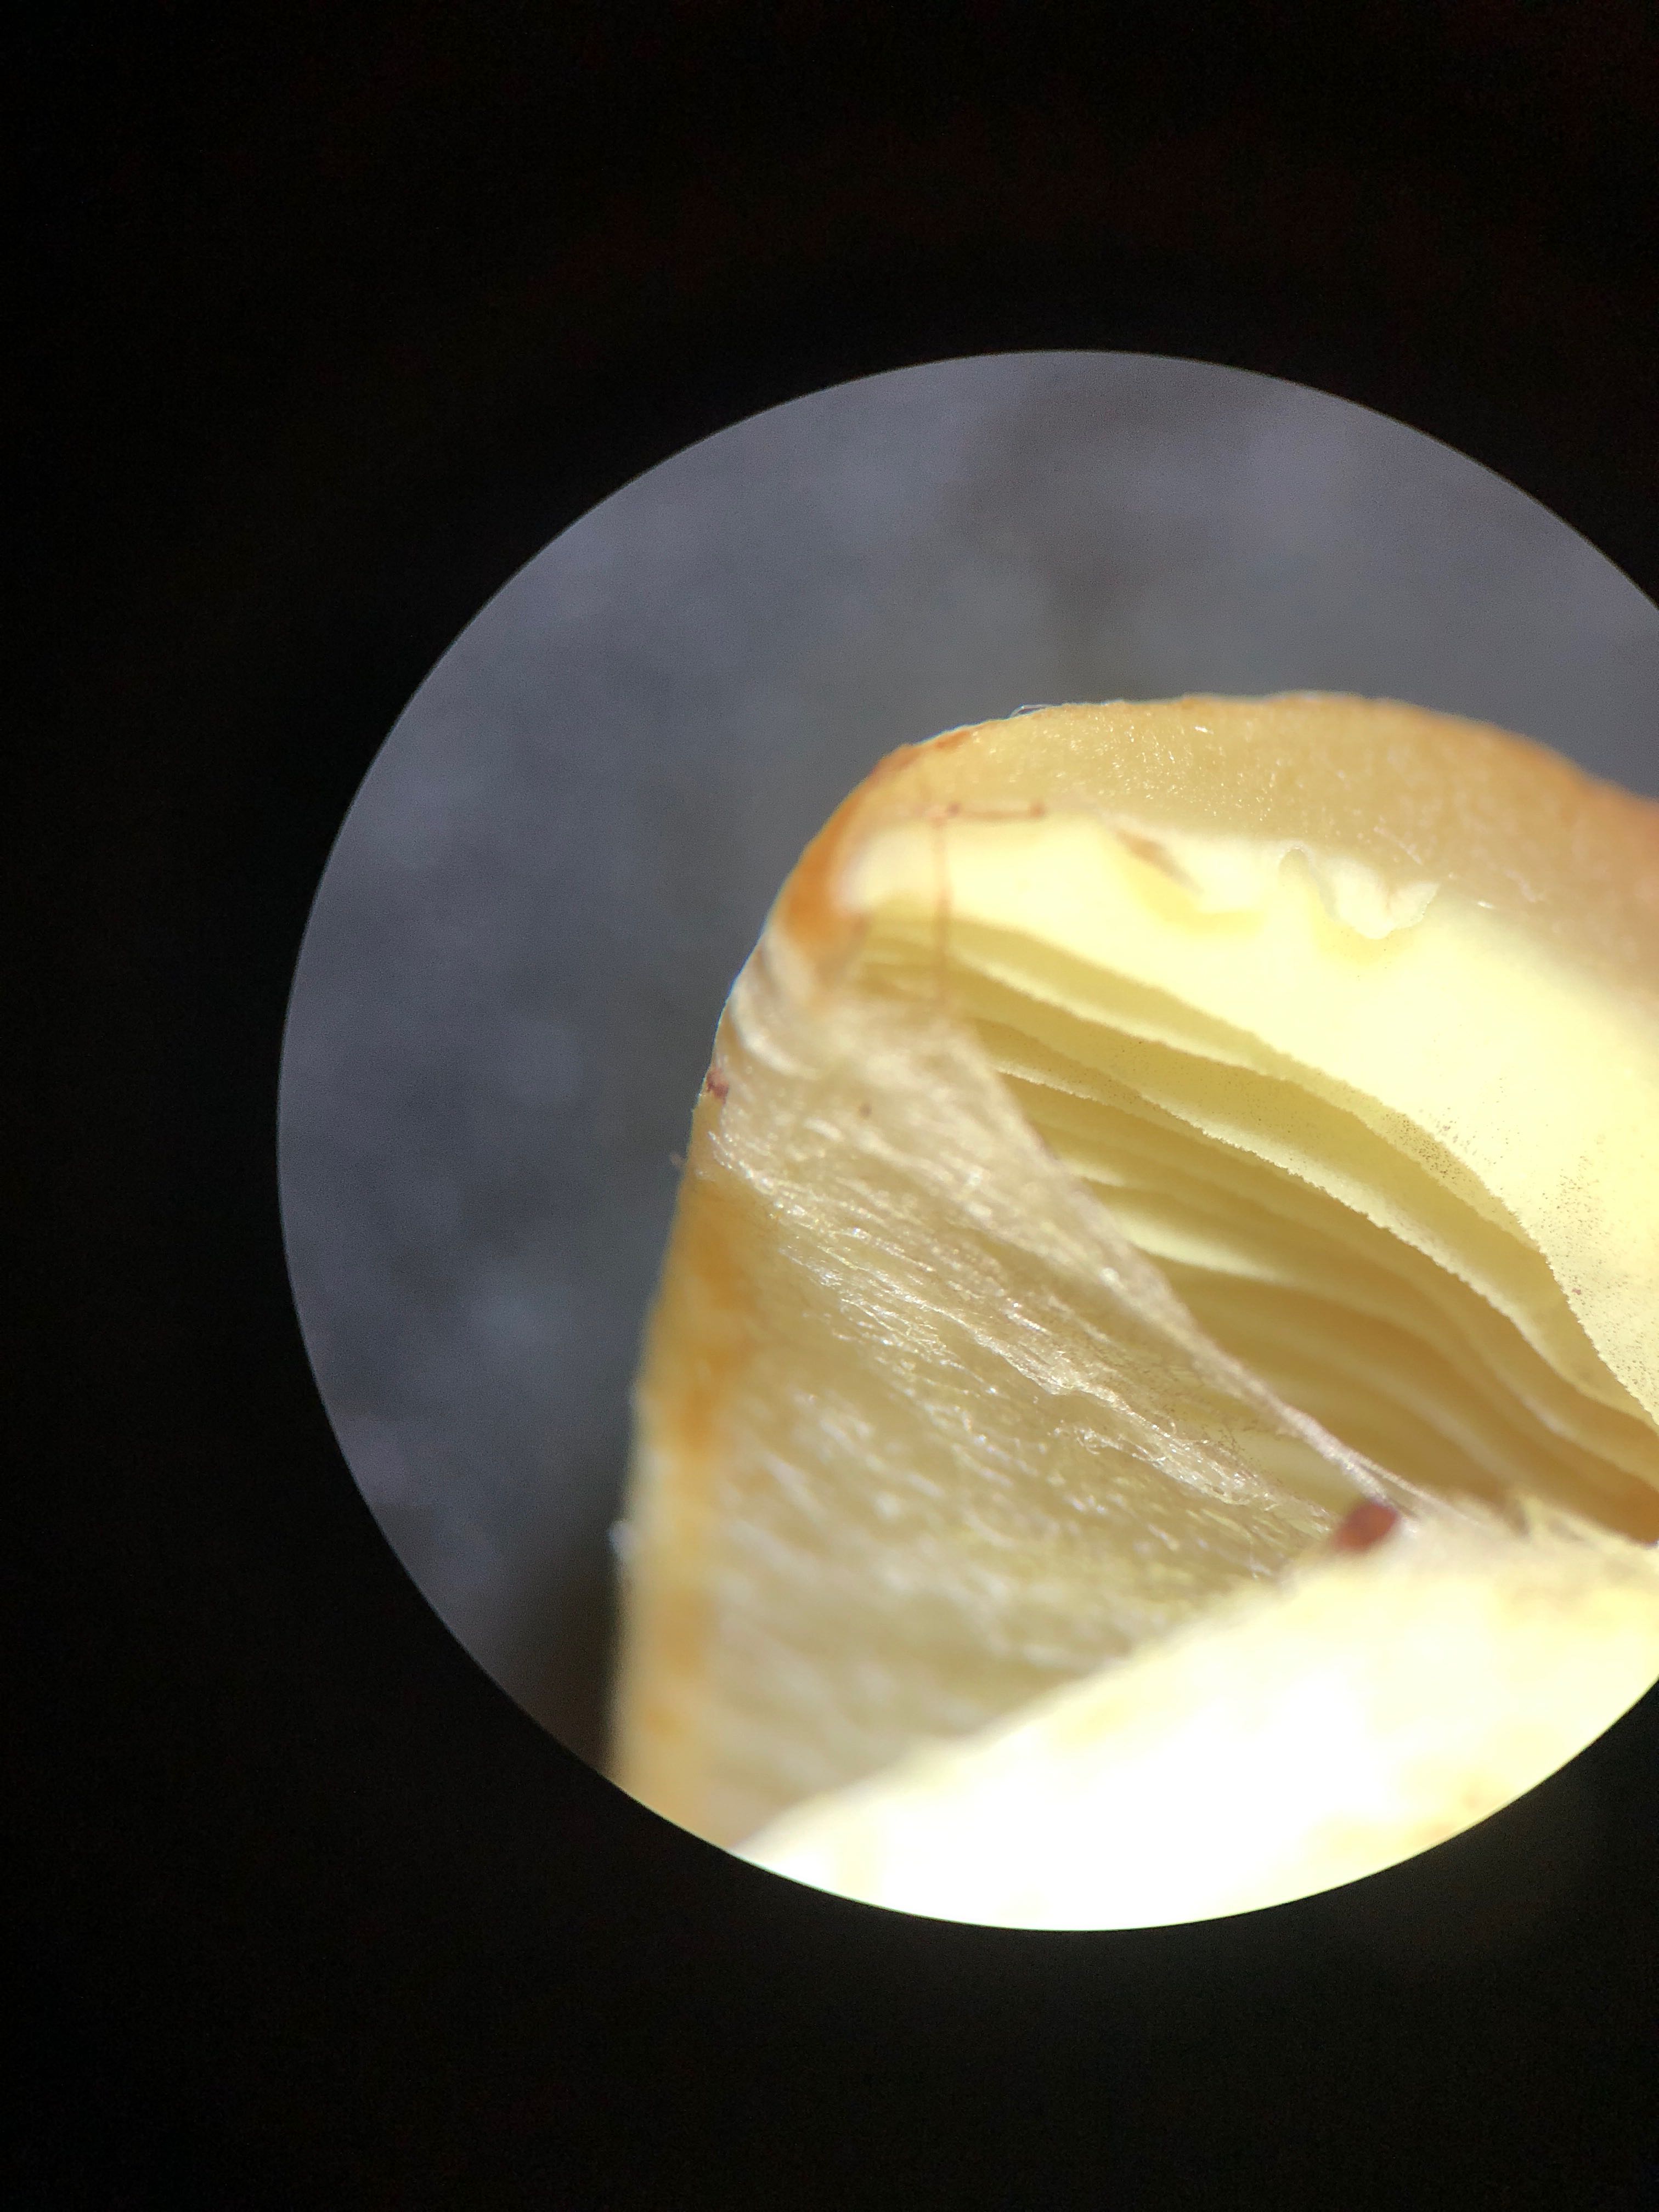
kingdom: Fungi
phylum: Basidiomycota
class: Agaricomycetes
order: Agaricales
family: Strophariaceae
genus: Hypholoma
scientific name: Hypholoma fasciculare
